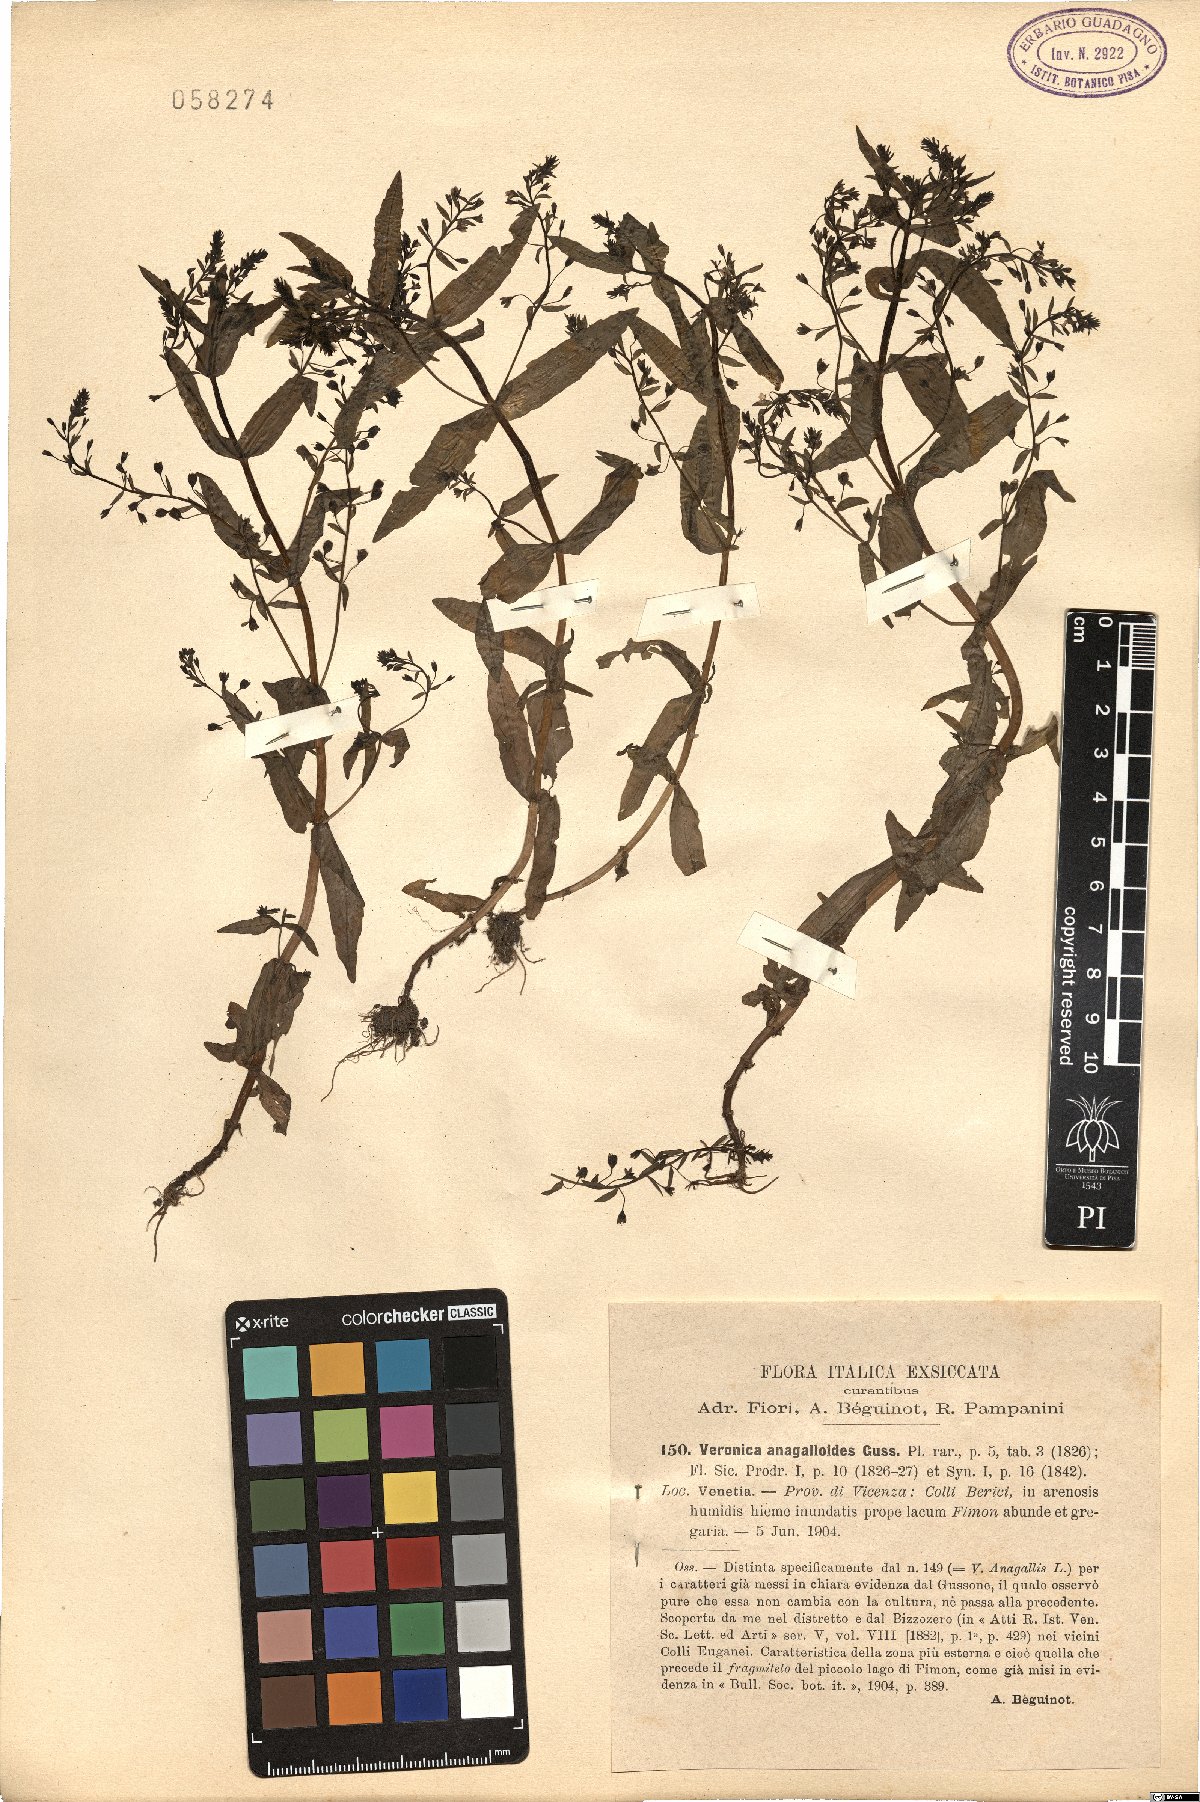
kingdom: Plantae
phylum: Tracheophyta
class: Magnoliopsida
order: Lamiales
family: Plantaginaceae
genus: Veronica
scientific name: Veronica anagalloides
